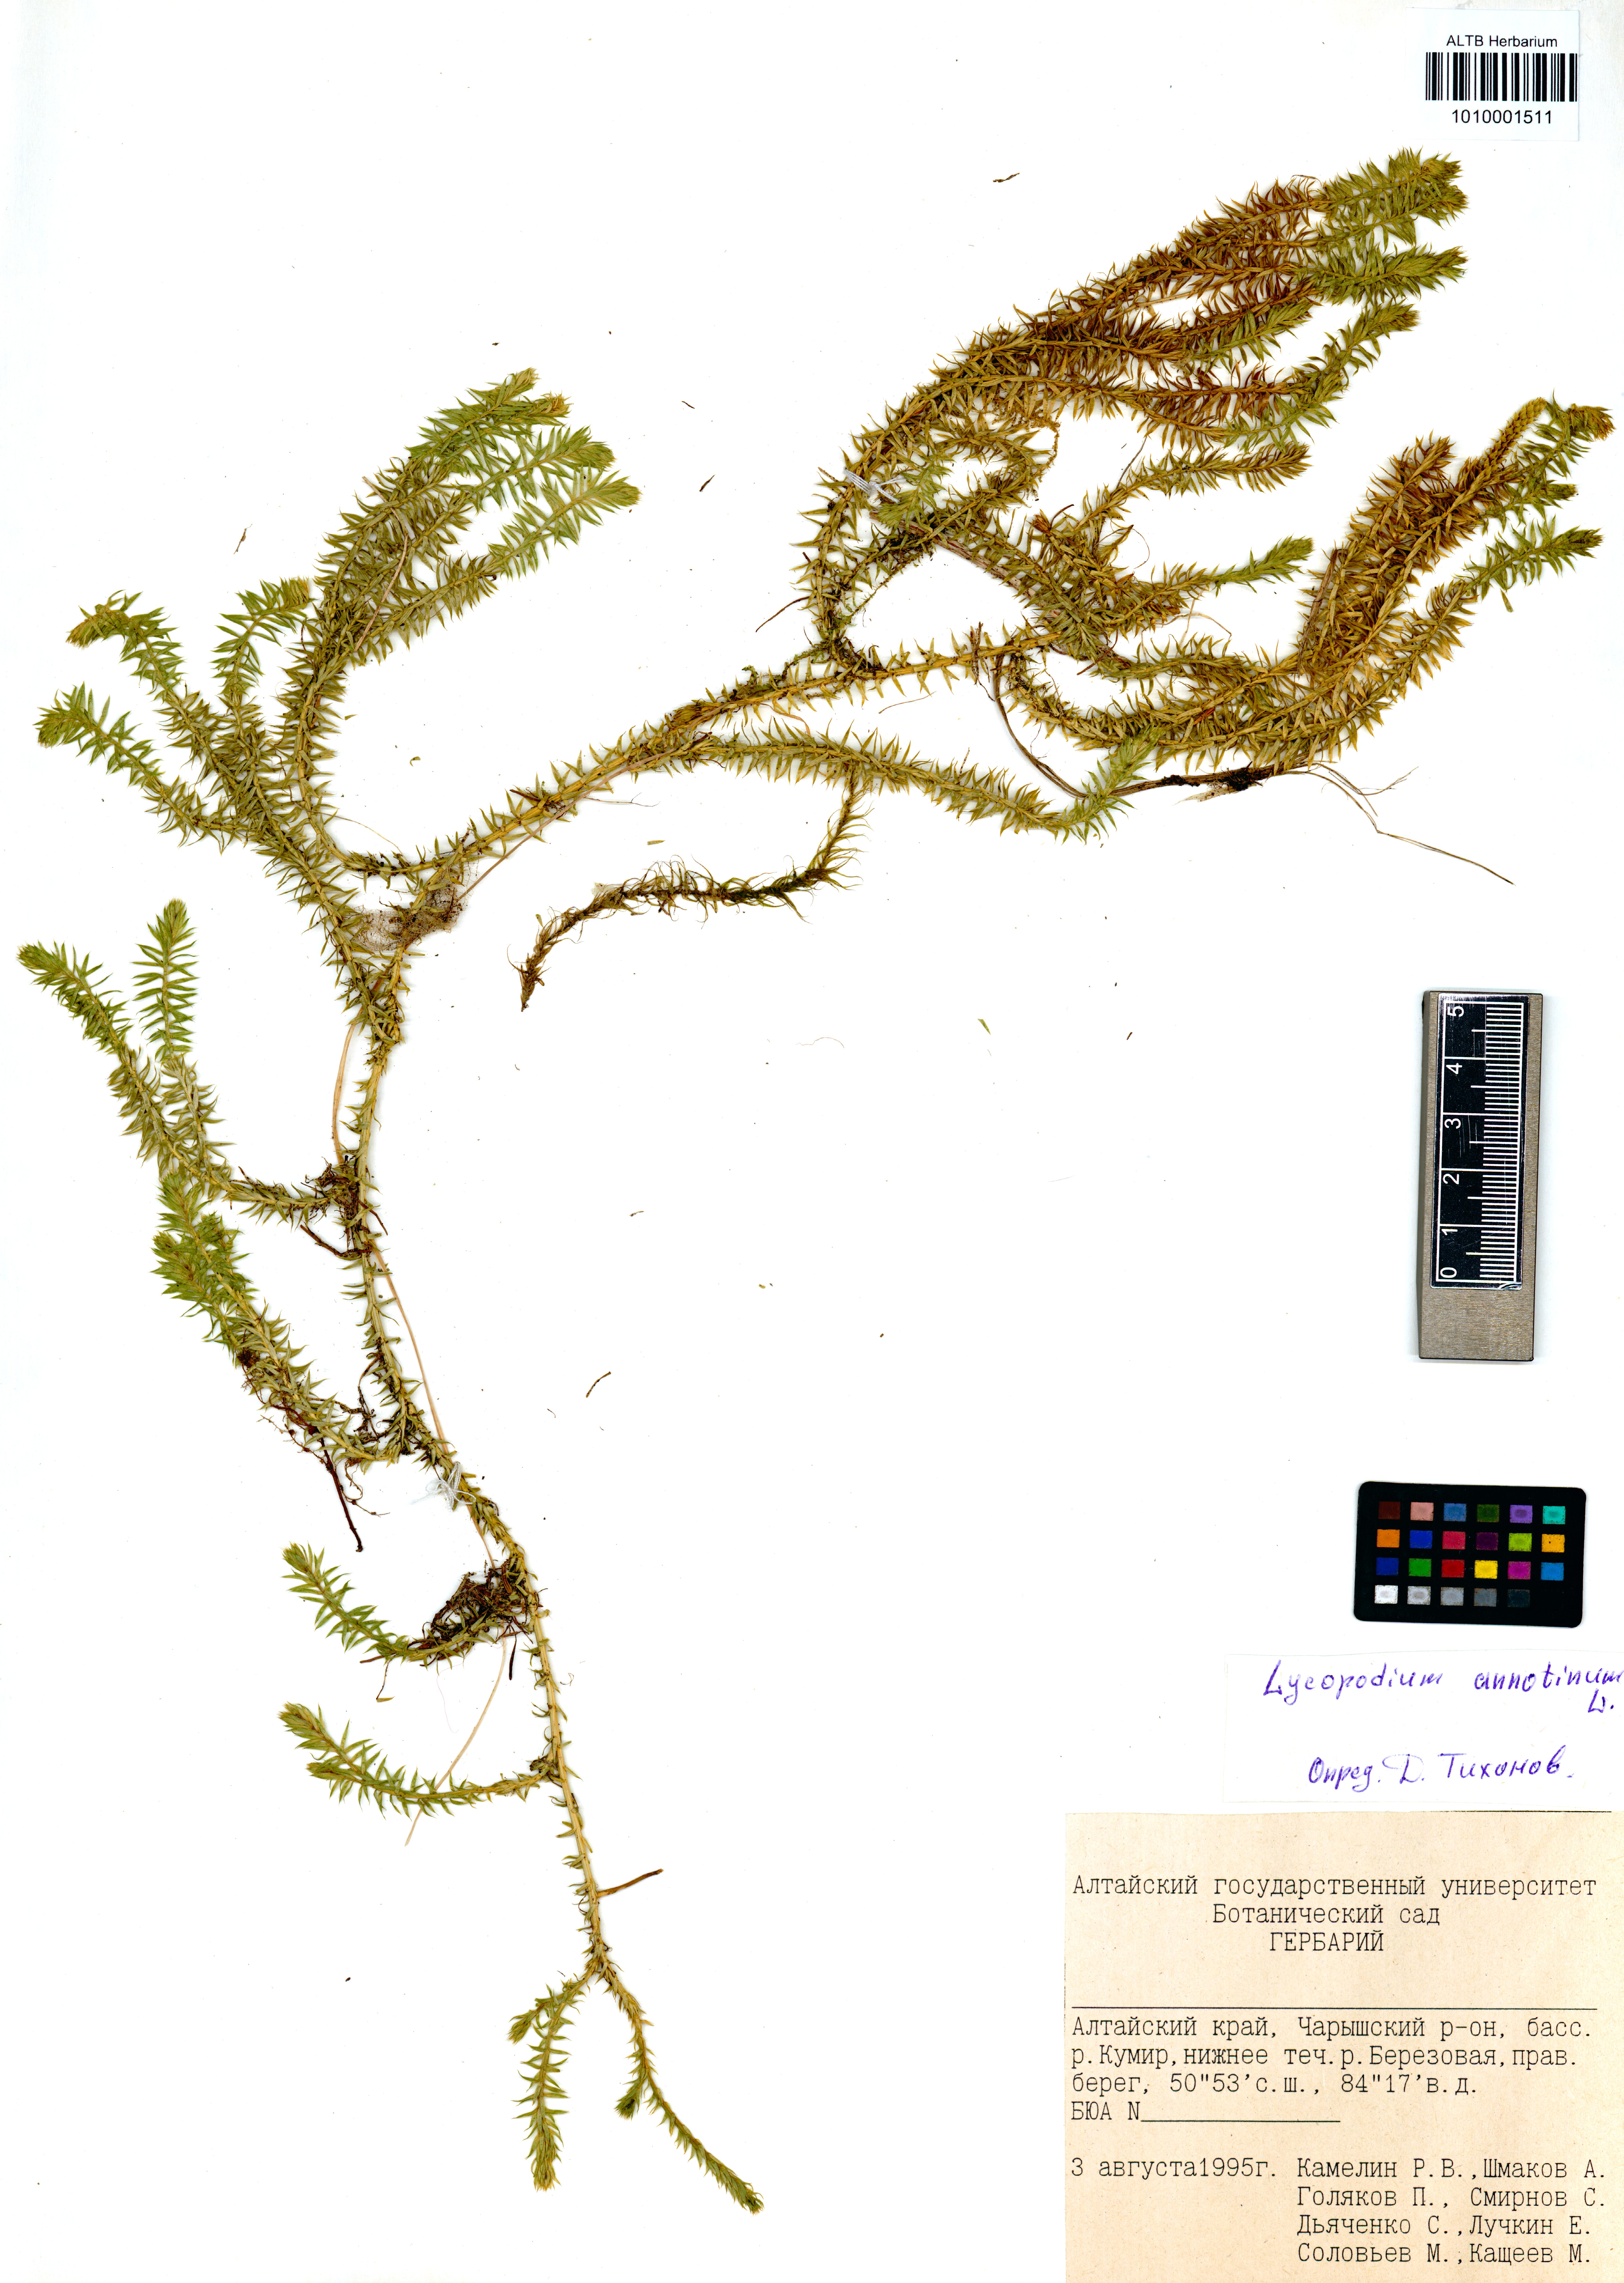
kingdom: Plantae
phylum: Tracheophyta
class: Lycopodiopsida
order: Lycopodiales
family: Lycopodiaceae
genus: Spinulum
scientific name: Spinulum annotinum
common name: Interrupted club-moss
